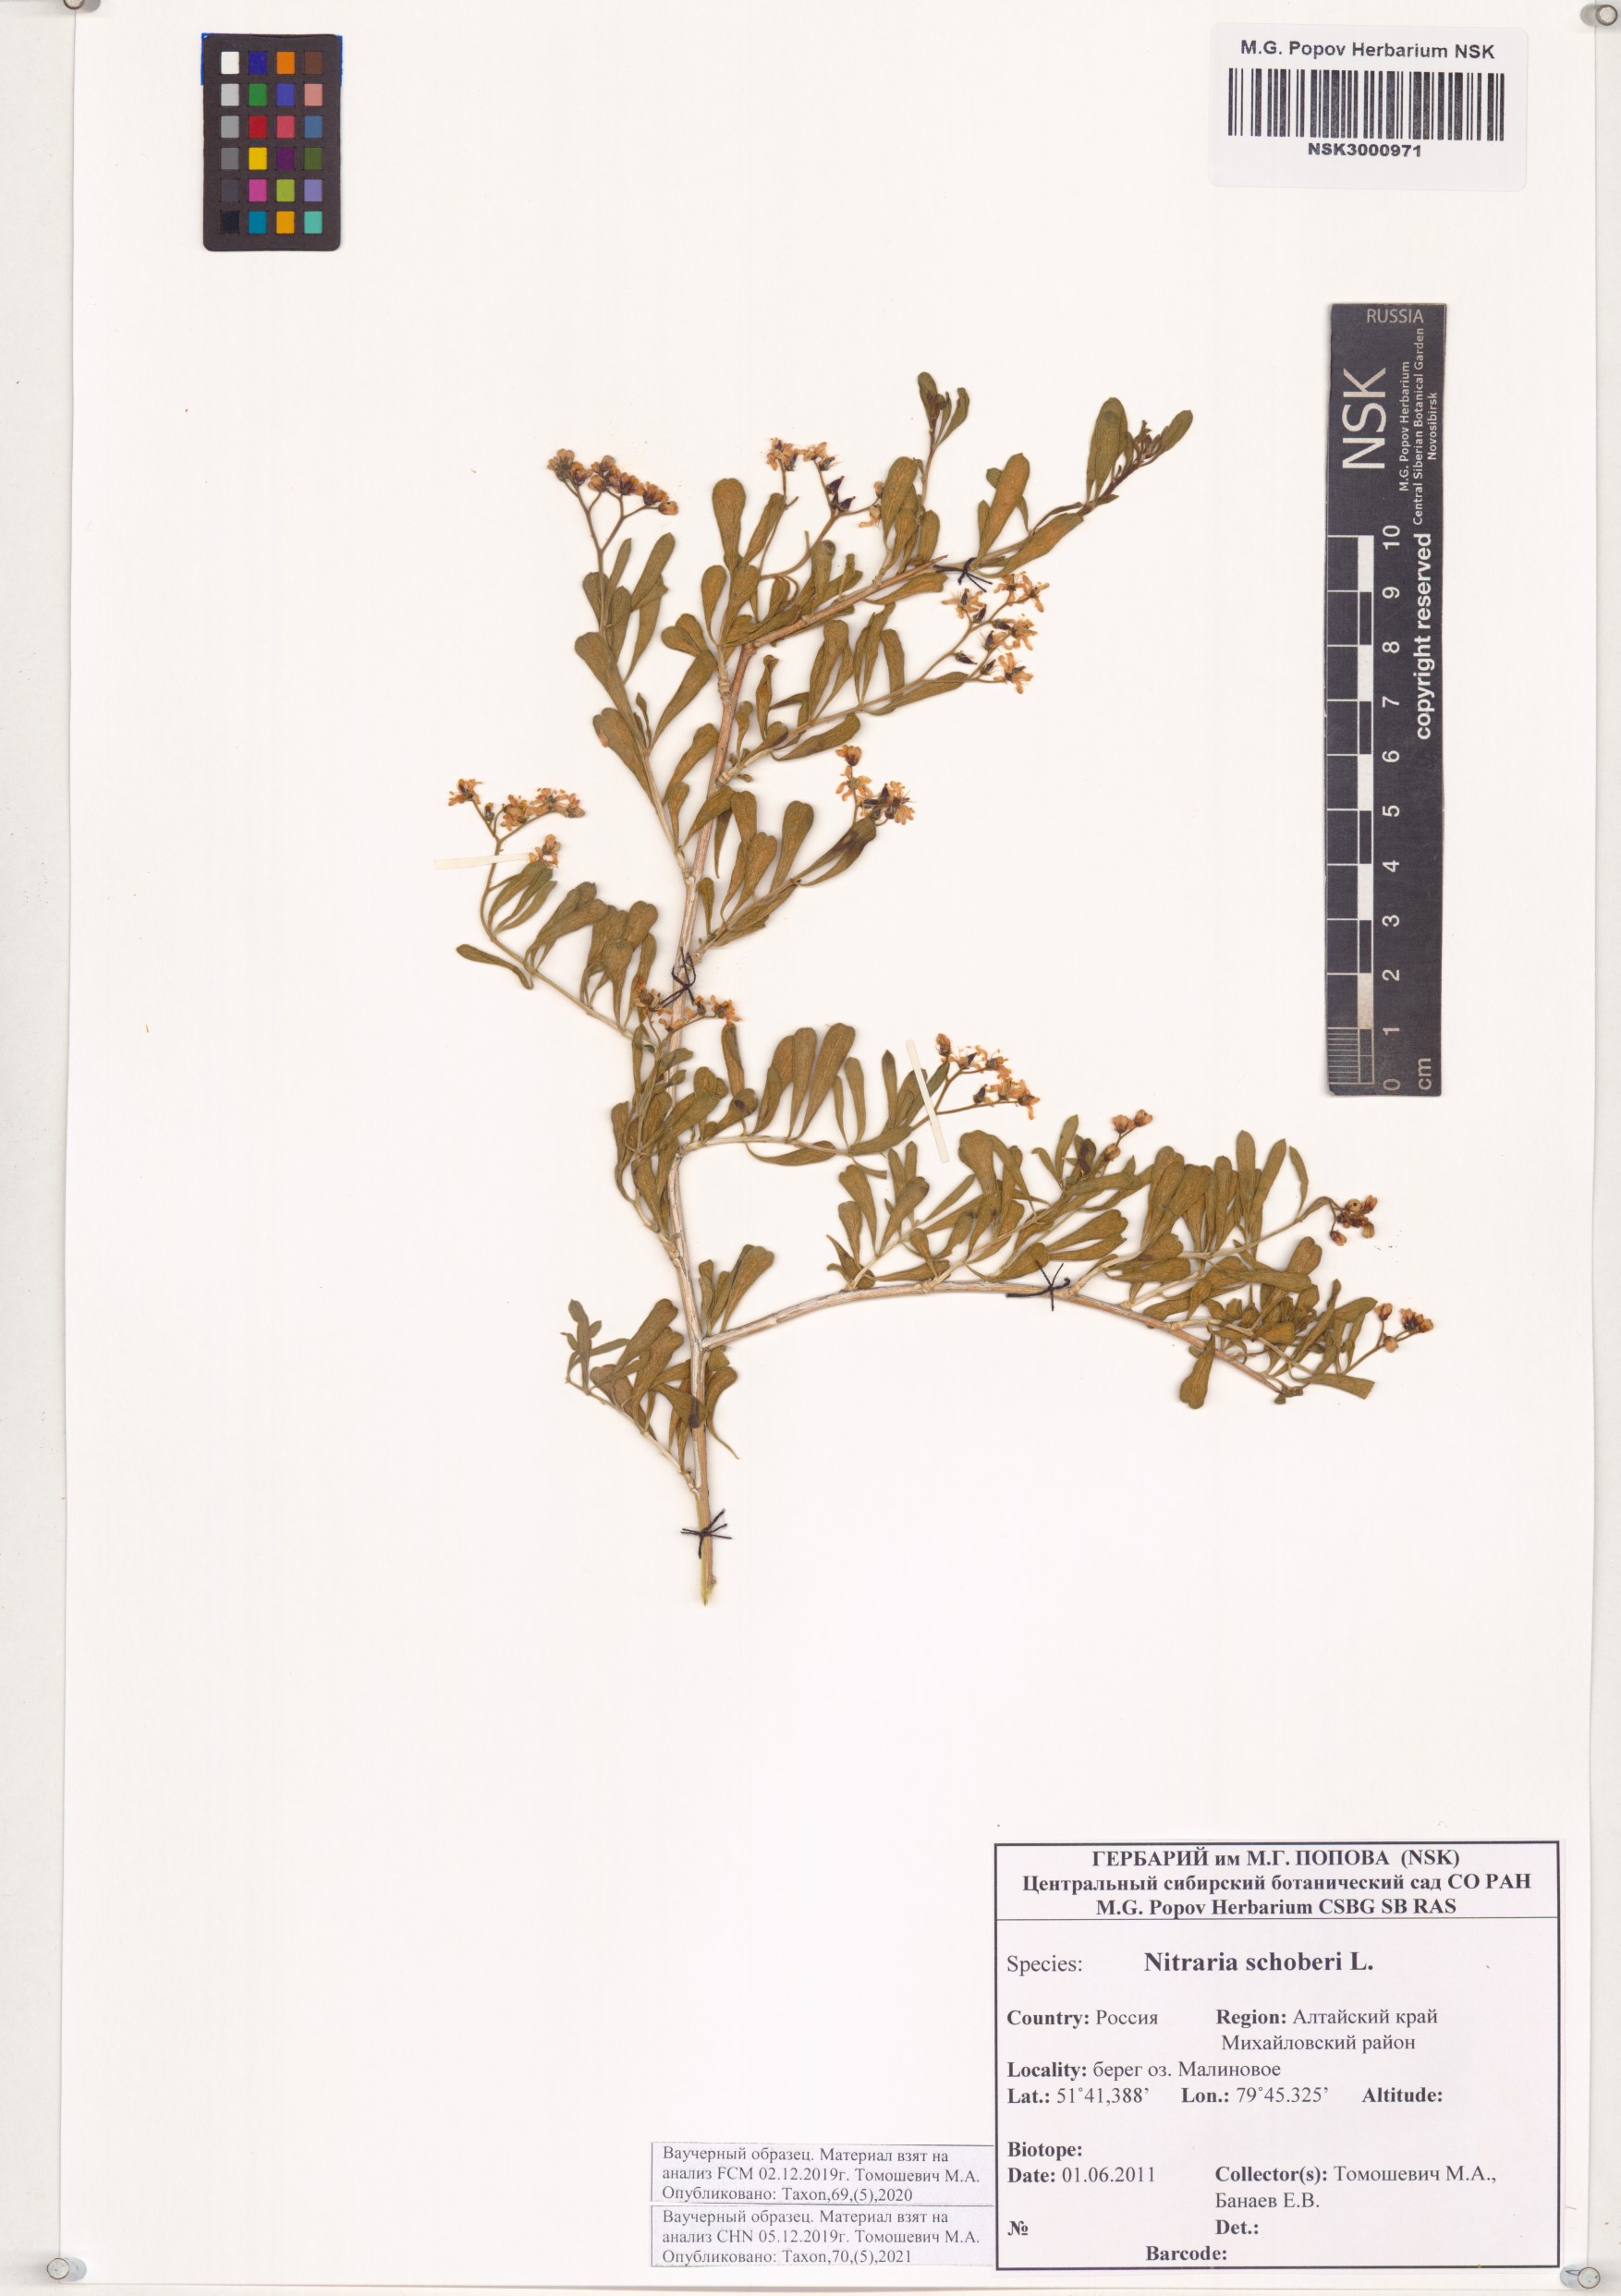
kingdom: Plantae
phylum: Tracheophyta
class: Magnoliopsida
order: Sapindales
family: Nitrariaceae
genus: Nitraria
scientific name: Nitraria schoberi
